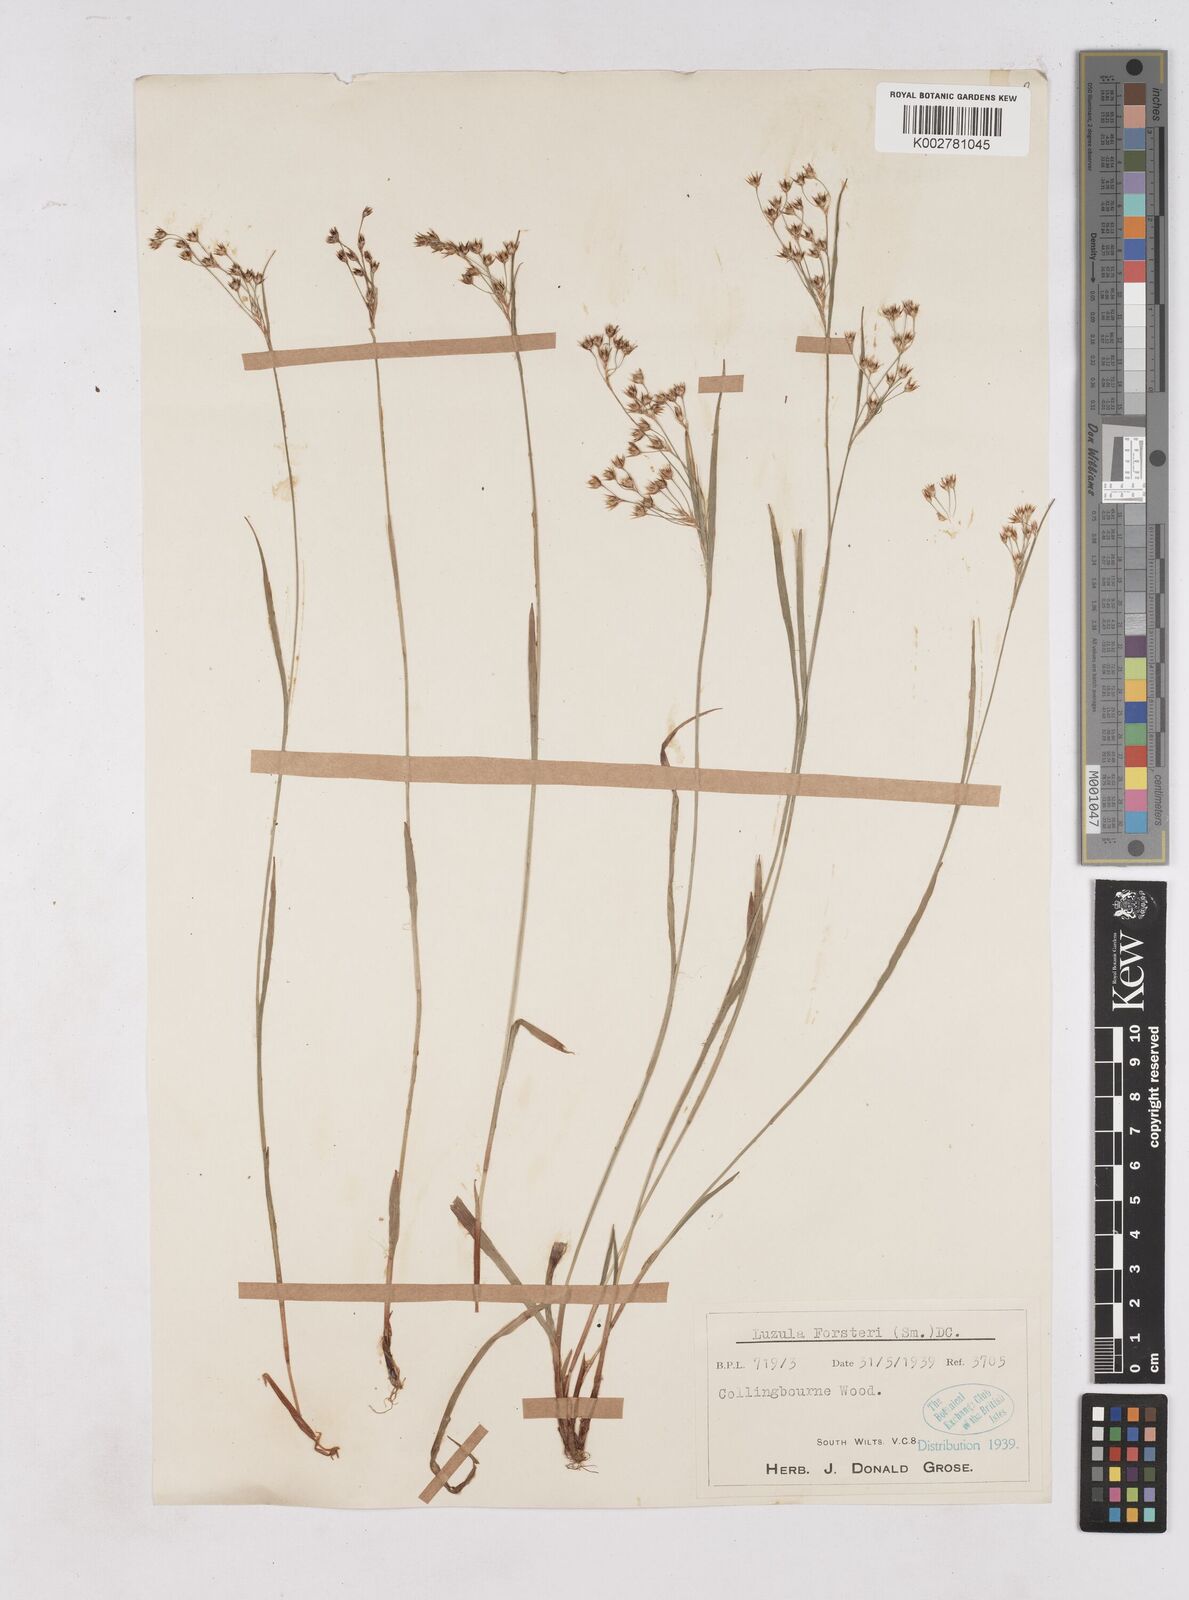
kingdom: Plantae
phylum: Tracheophyta
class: Liliopsida
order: Poales
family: Juncaceae
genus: Luzula
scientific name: Luzula forsteri
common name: Southern wood-rush
